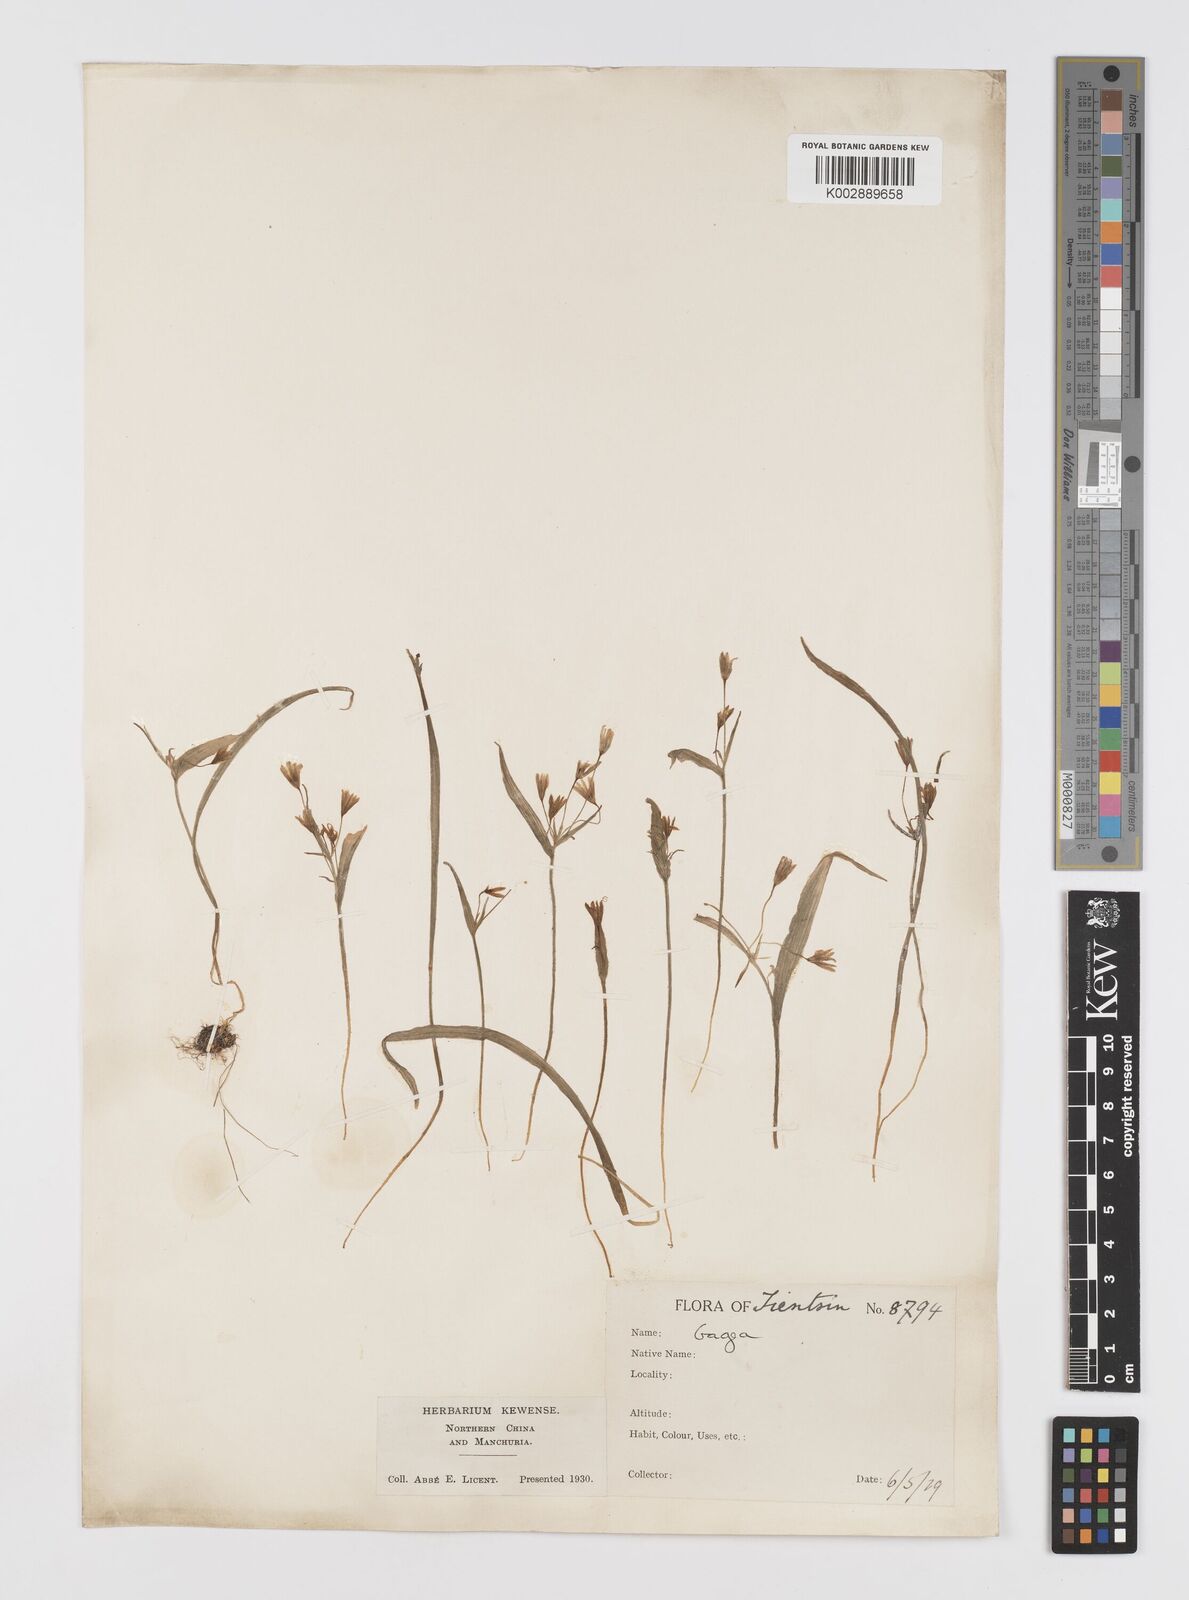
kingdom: Plantae
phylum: Tracheophyta
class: Liliopsida
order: Liliales
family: Liliaceae
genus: Gagea
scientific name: Gagea lutea
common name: Yellow star-of-bethlehem
